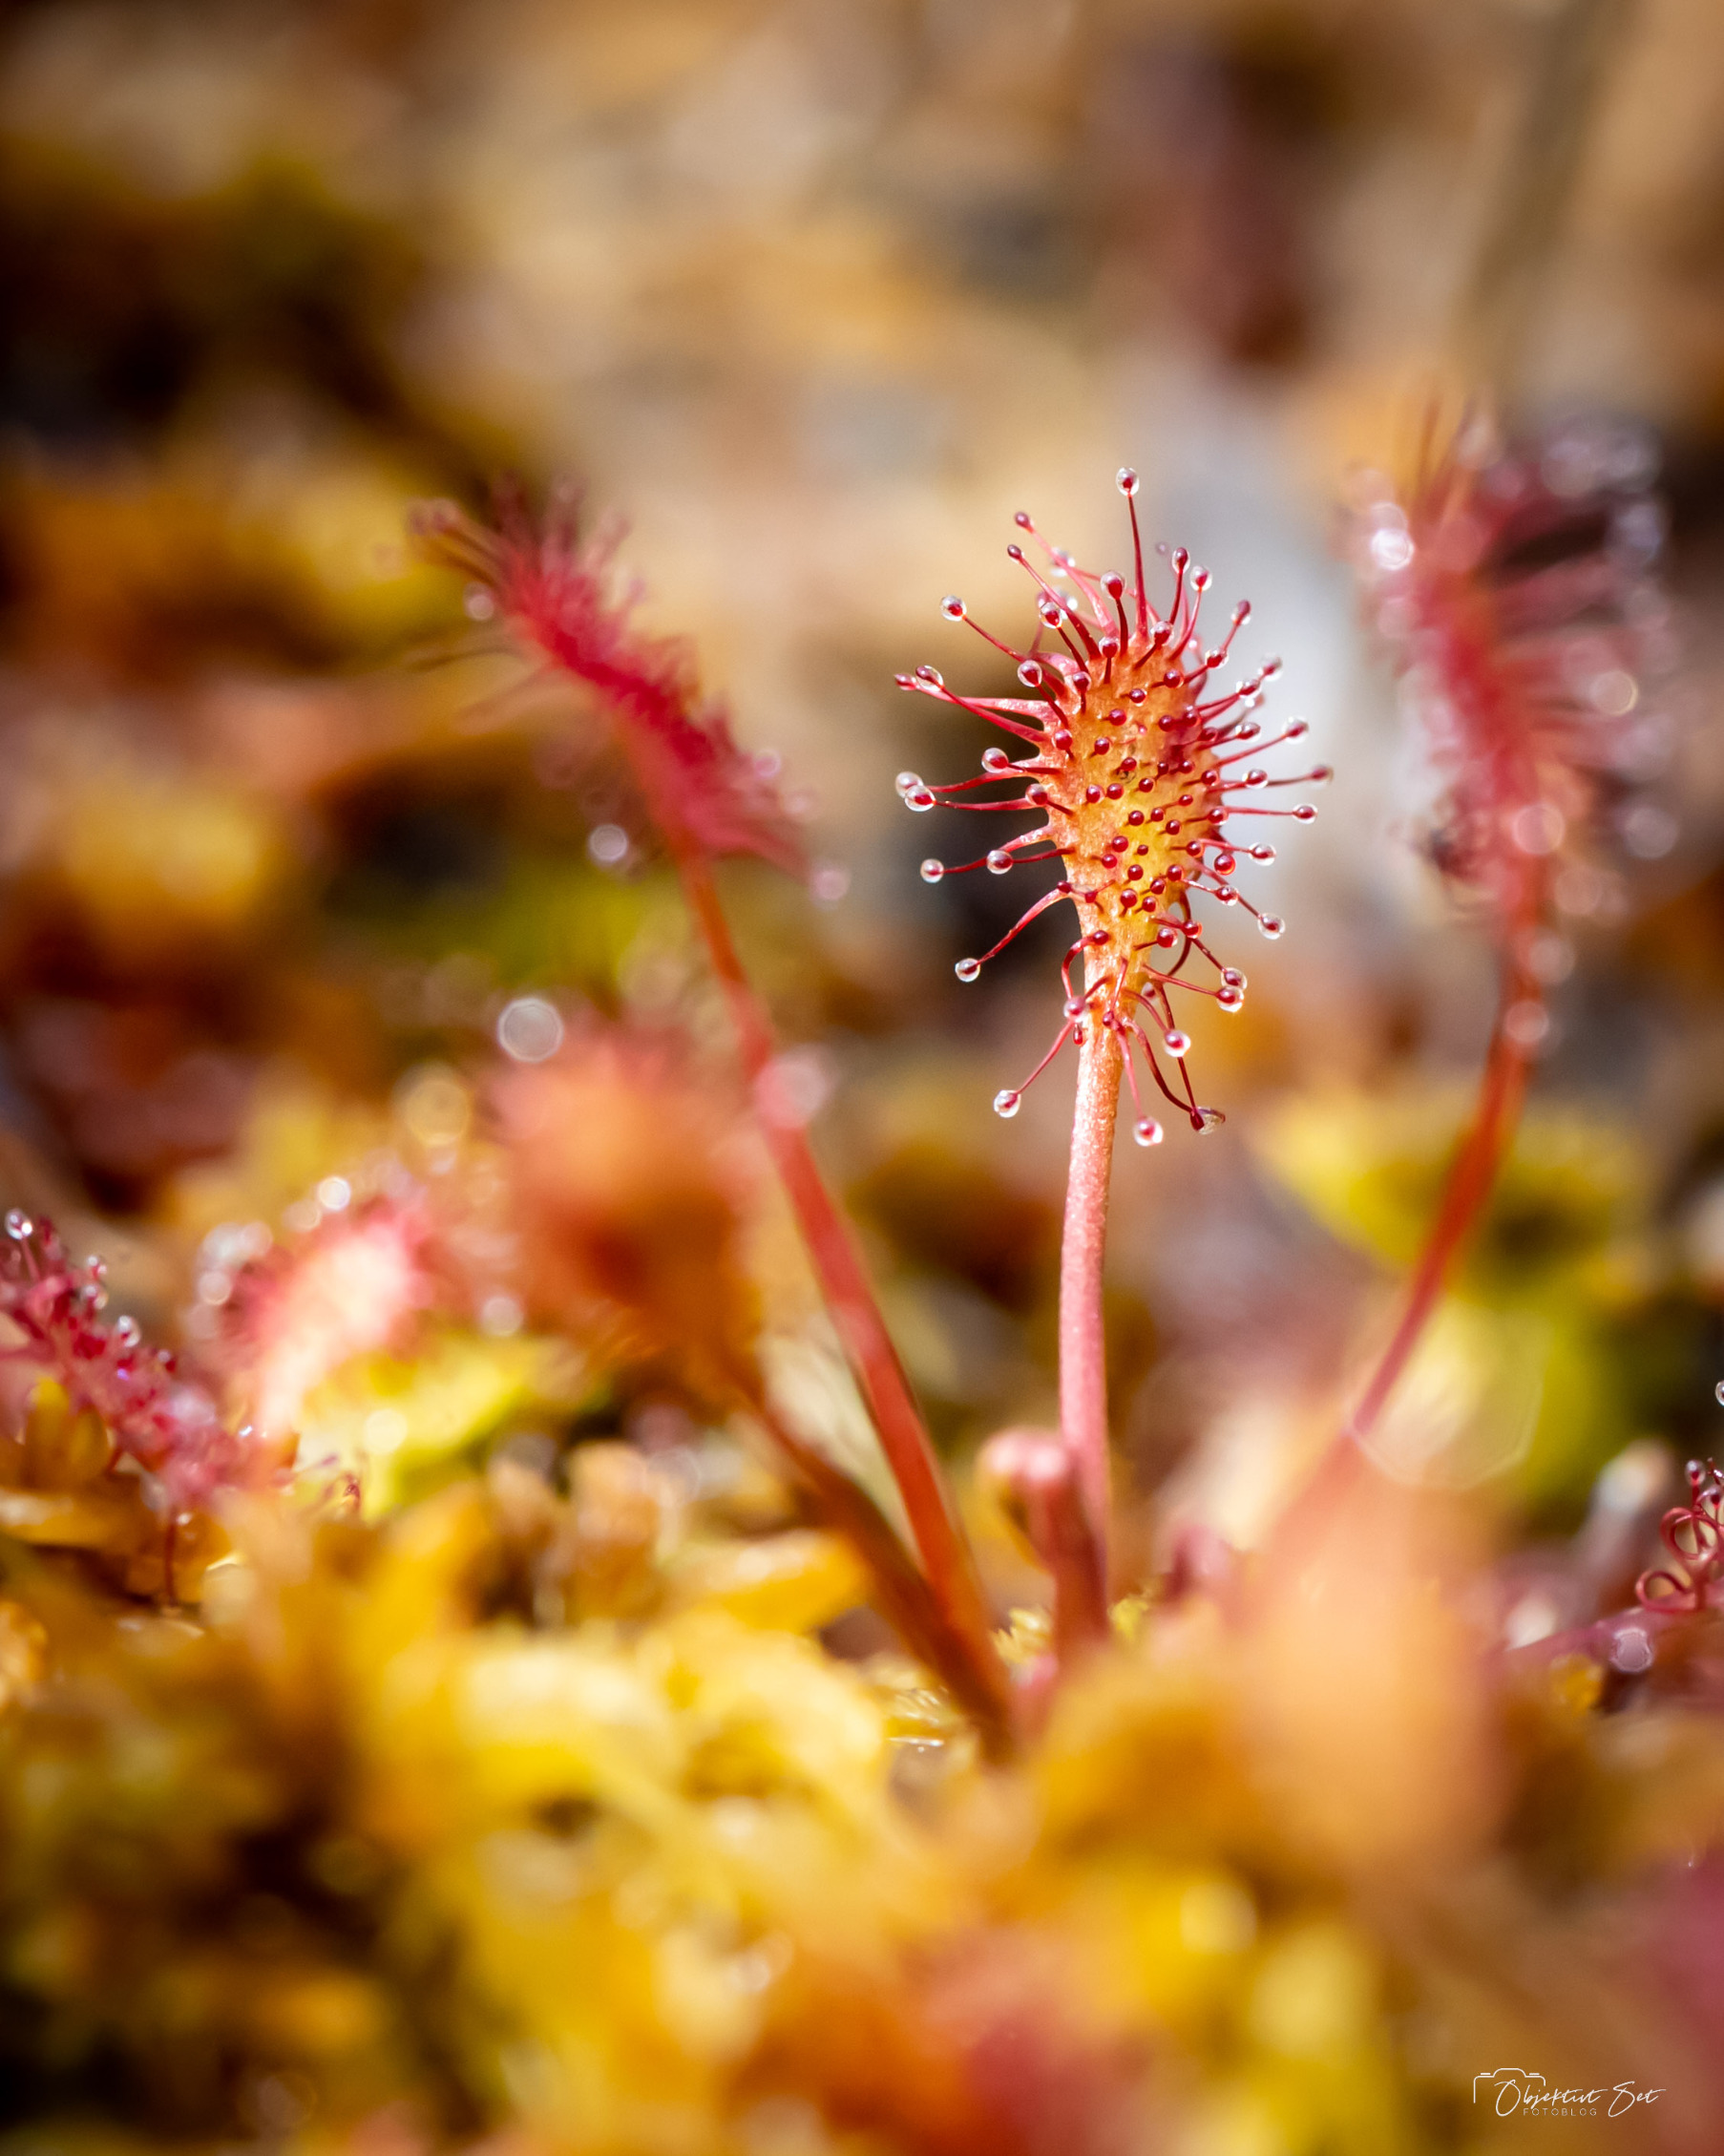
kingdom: Plantae
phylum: Tracheophyta
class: Magnoliopsida
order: Caryophyllales
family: Droseraceae
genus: Drosera
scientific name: Drosera intermedia
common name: Liden soldug
